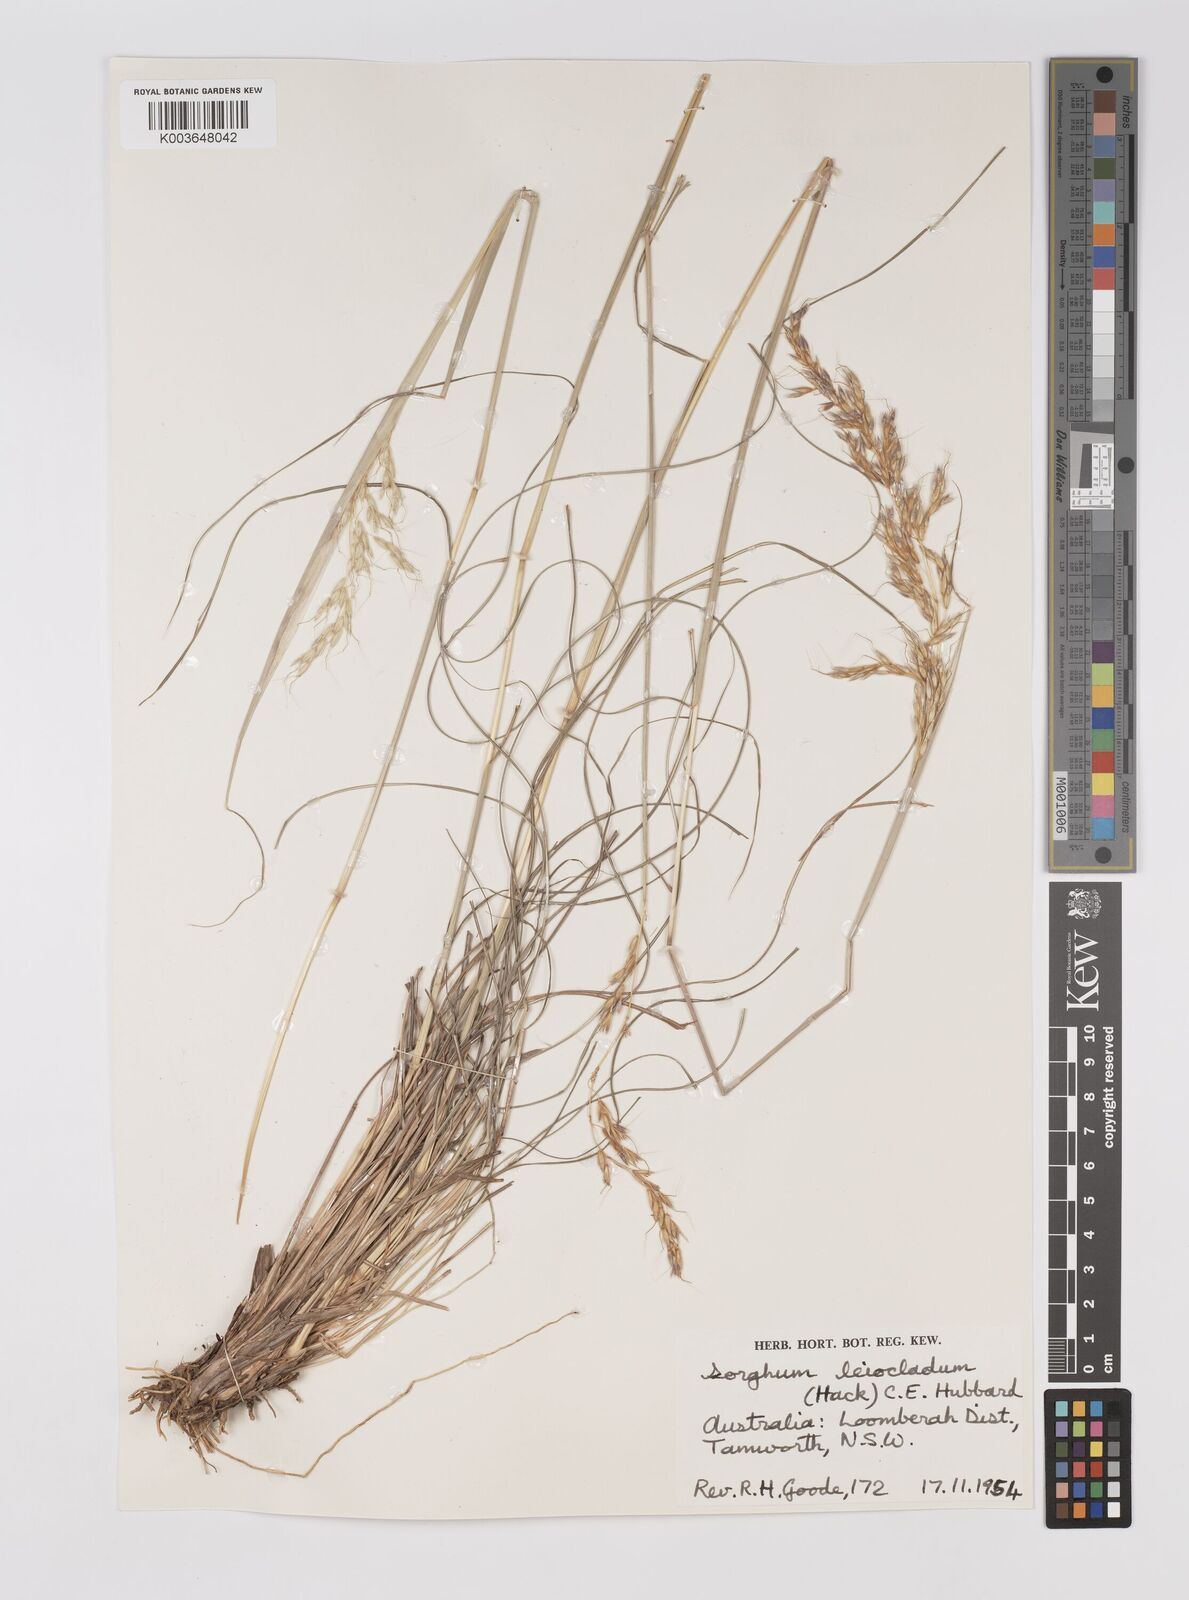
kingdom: Plantae
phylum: Tracheophyta
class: Liliopsida
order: Poales
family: Poaceae
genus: Sarga
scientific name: Sarga leioclada
